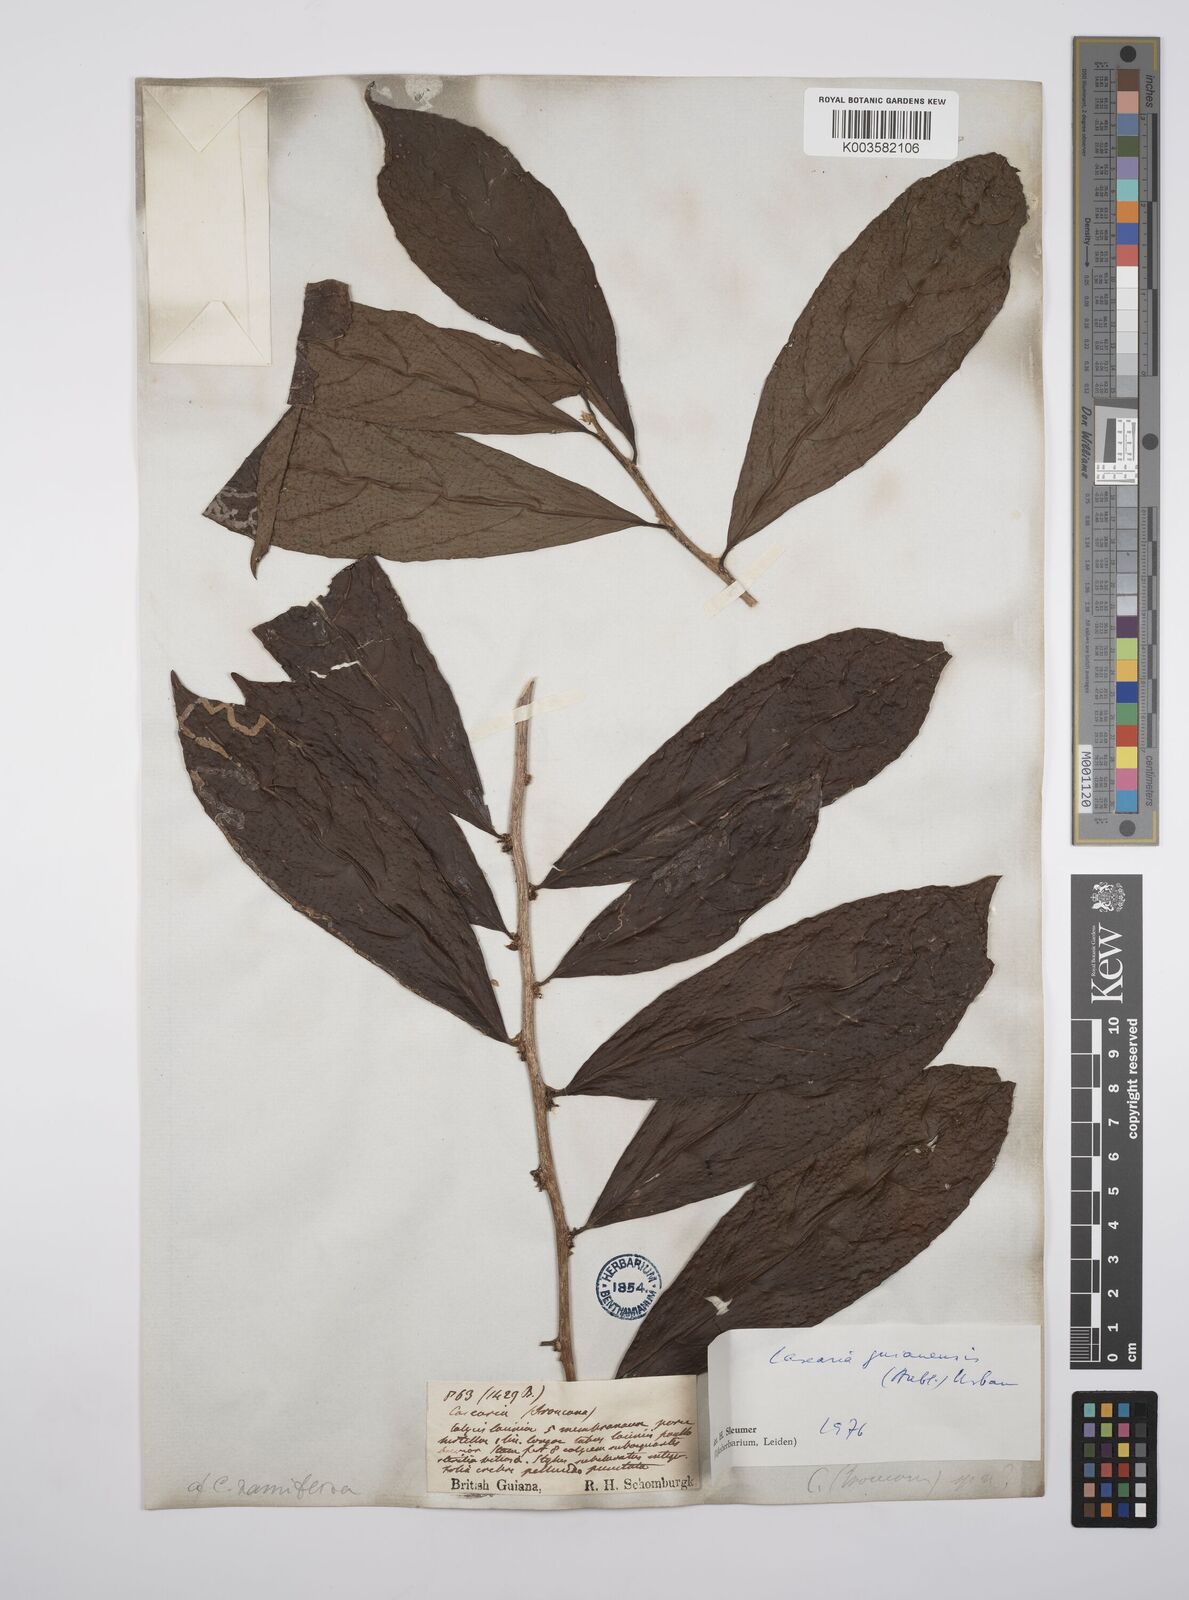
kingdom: Plantae
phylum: Tracheophyta
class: Magnoliopsida
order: Malpighiales
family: Salicaceae
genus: Casearia
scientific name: Casearia guianensis
